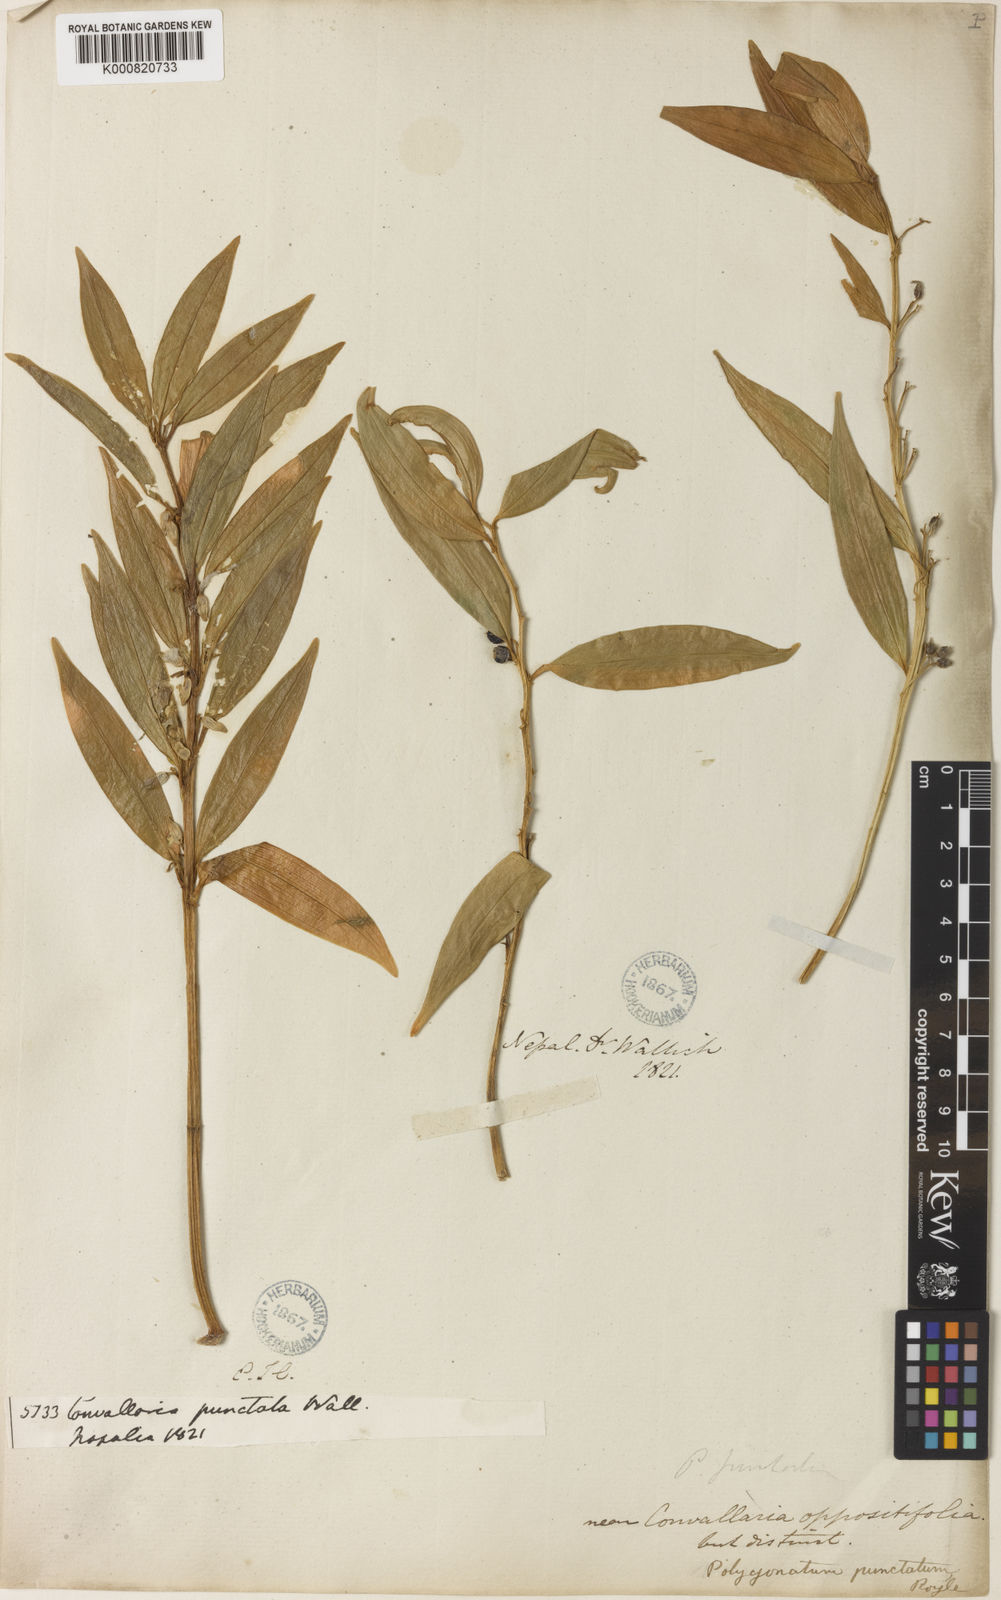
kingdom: Plantae
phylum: Tracheophyta
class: Liliopsida
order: Asparagales
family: Asparagaceae
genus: Polygonatum
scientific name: Polygonatum punctatum
